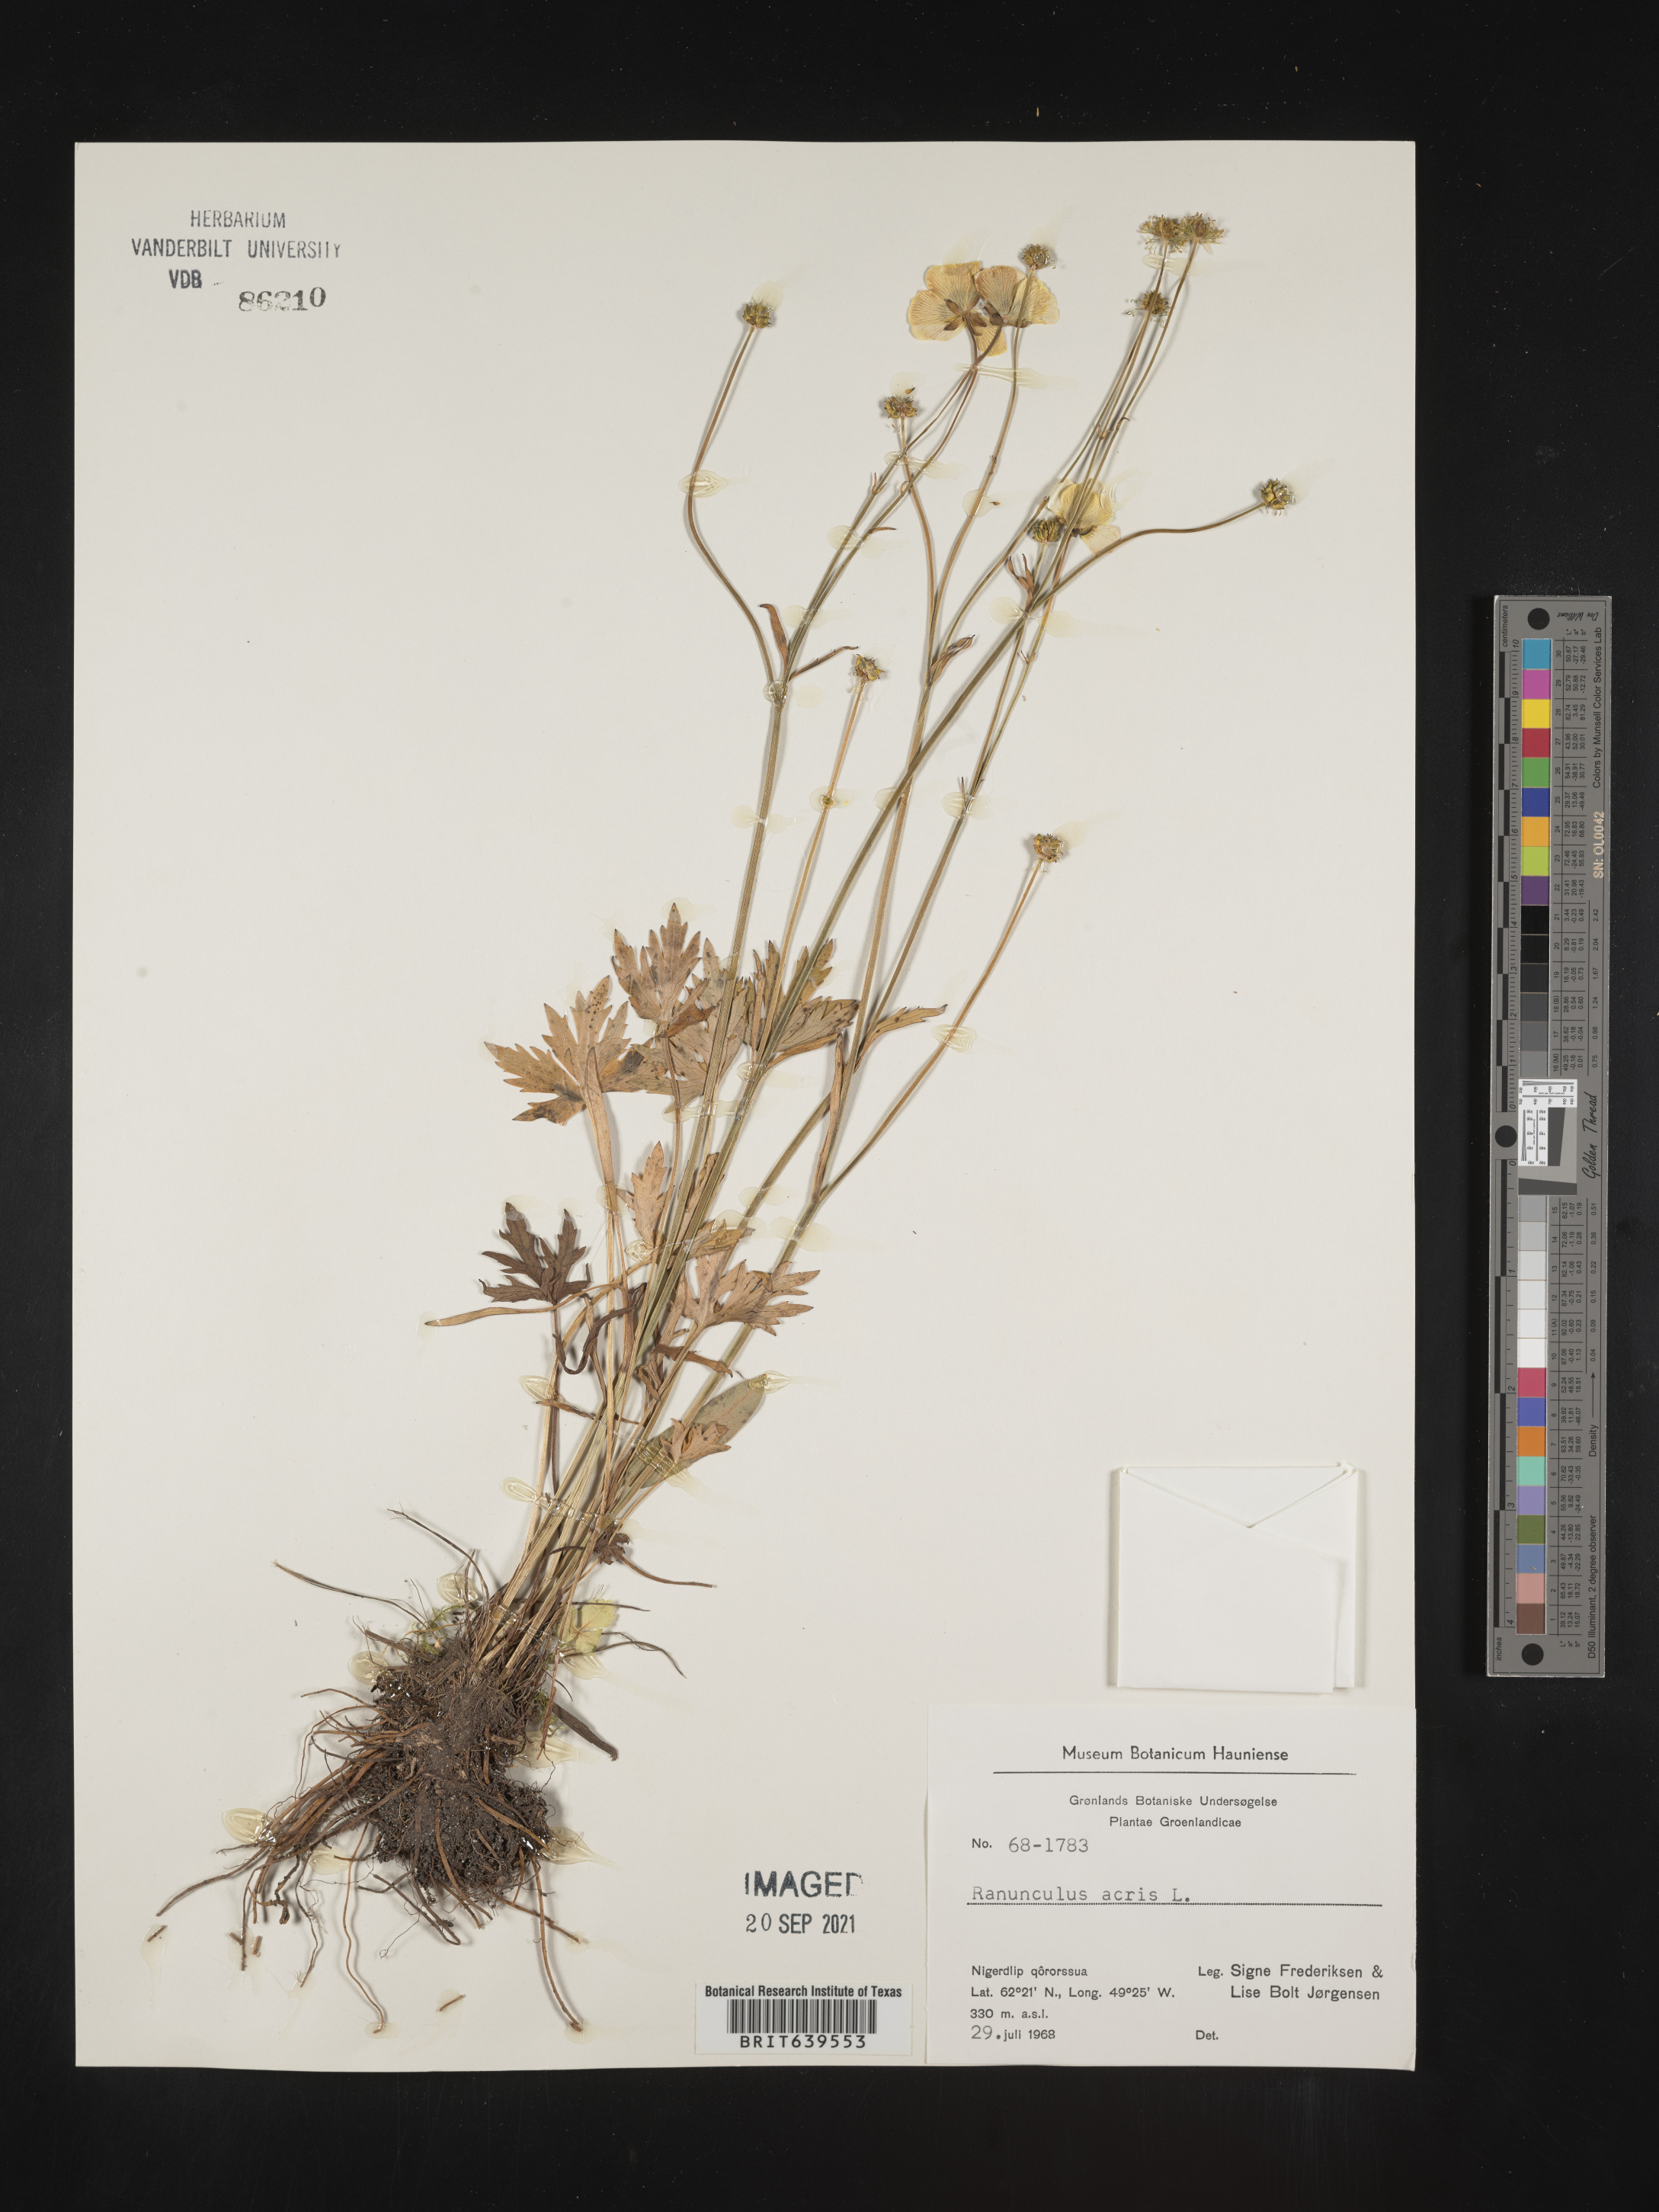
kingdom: Plantae
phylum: Tracheophyta
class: Magnoliopsida
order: Ranunculales
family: Ranunculaceae
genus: Ranunculus
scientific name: Ranunculus
